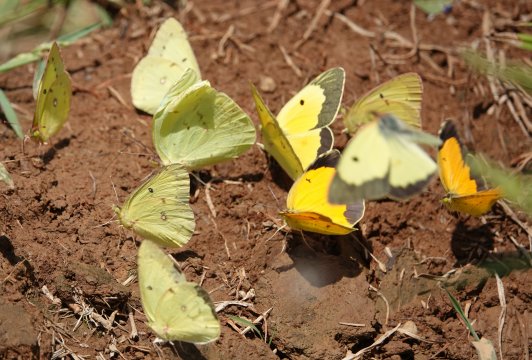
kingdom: Animalia
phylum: Arthropoda
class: Insecta
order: Lepidoptera
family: Pieridae
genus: Colias
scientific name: Colias eurytheme
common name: Orange Sulphur
